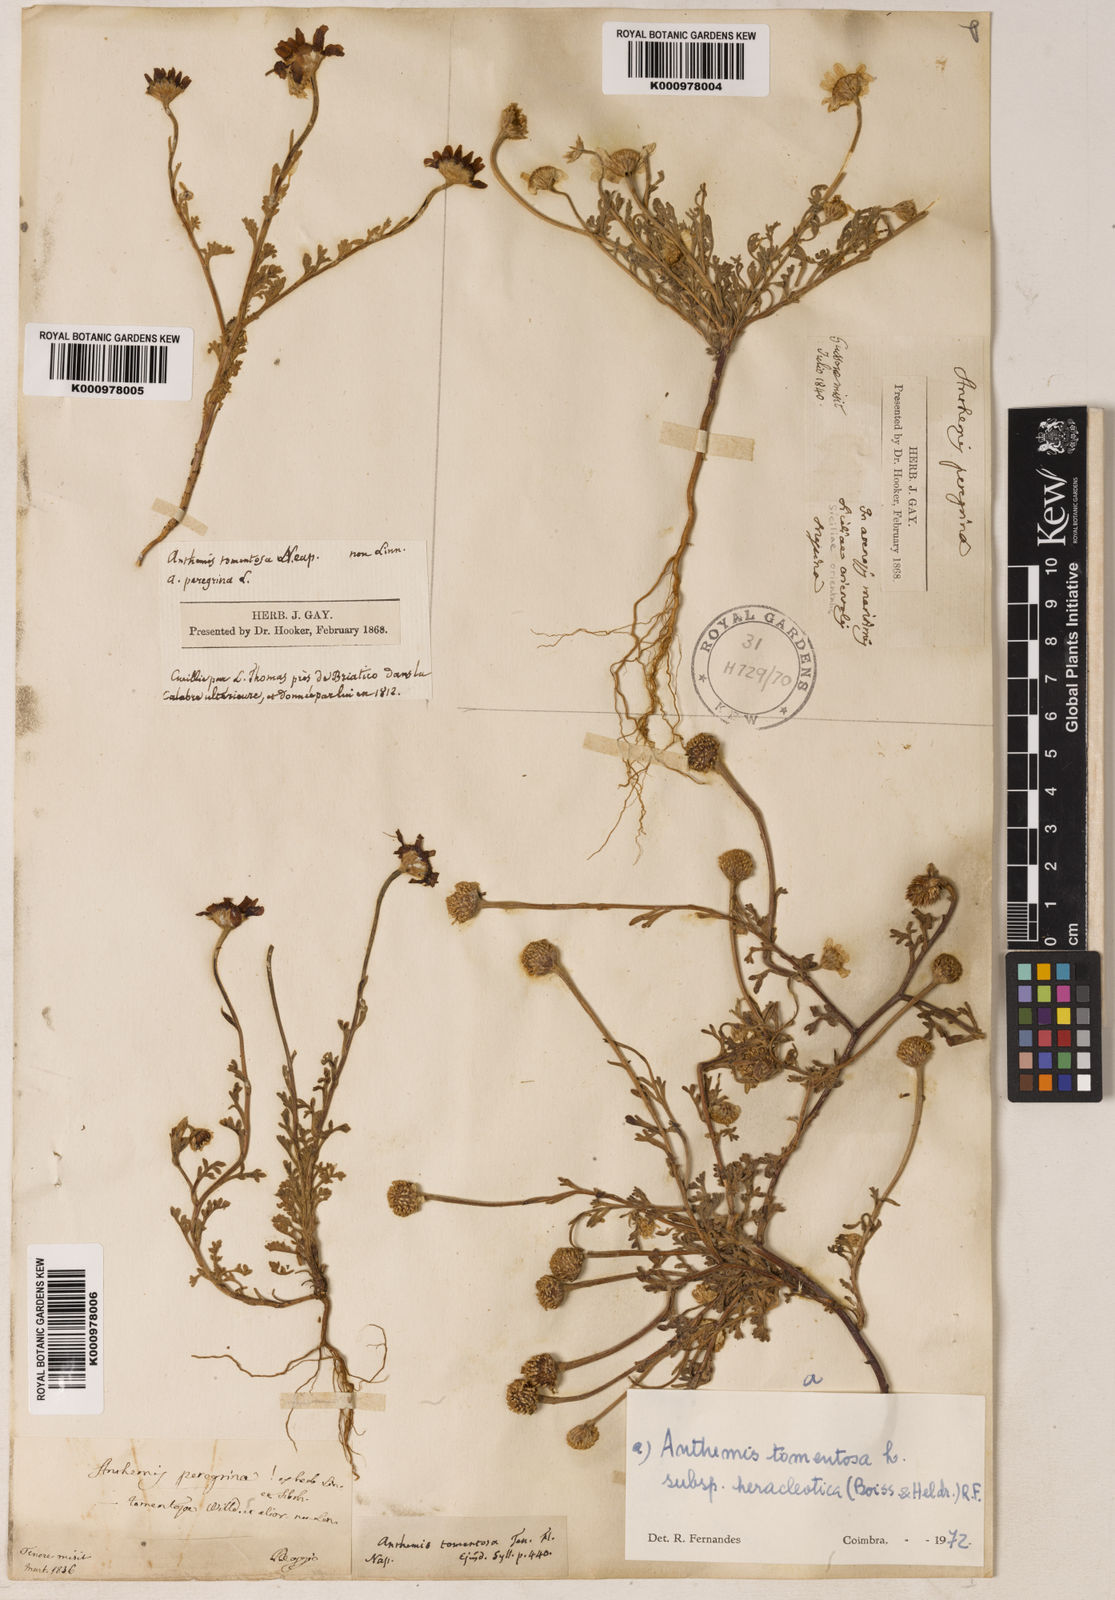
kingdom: Plantae
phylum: Tracheophyta
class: Magnoliopsida
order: Asterales
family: Asteraceae
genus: Anthemis
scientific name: Anthemis tomentosa
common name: Woolly chamomile
